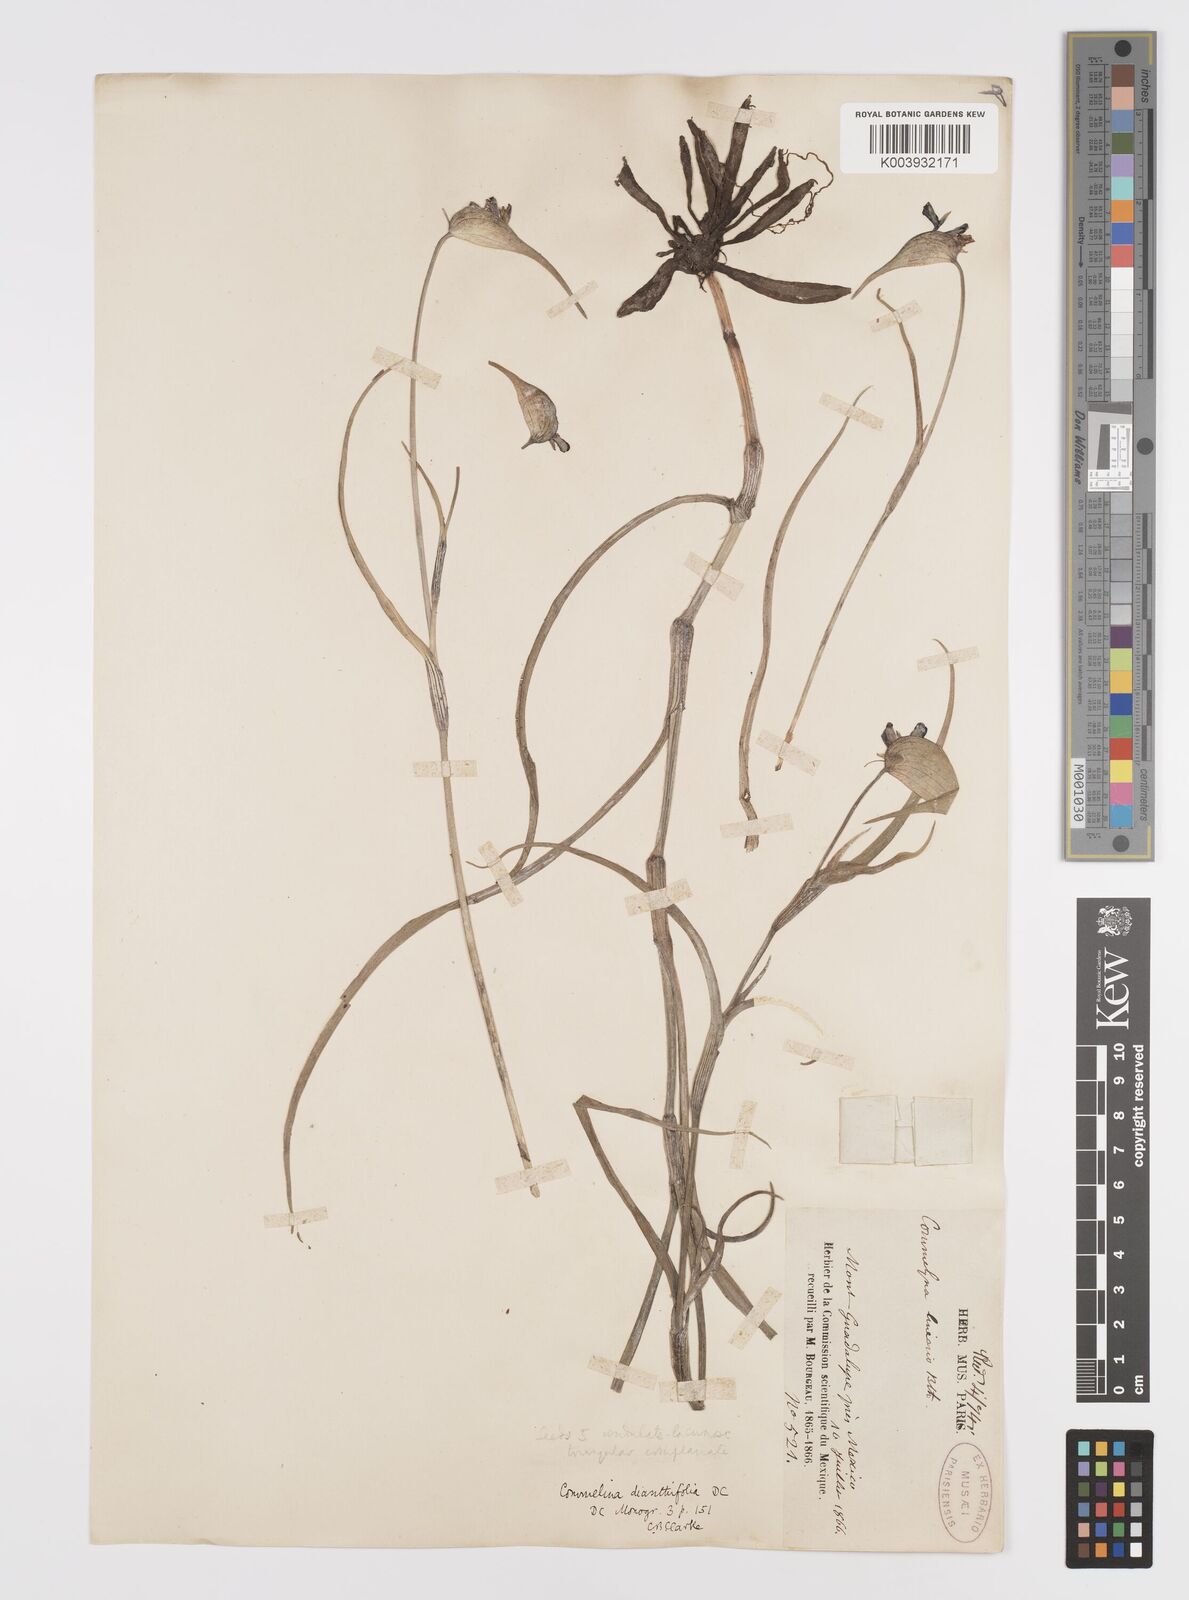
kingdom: Plantae
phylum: Tracheophyta
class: Liliopsida
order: Commelinales
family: Commelinaceae
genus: Commelina
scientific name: Commelina dianthifolia
